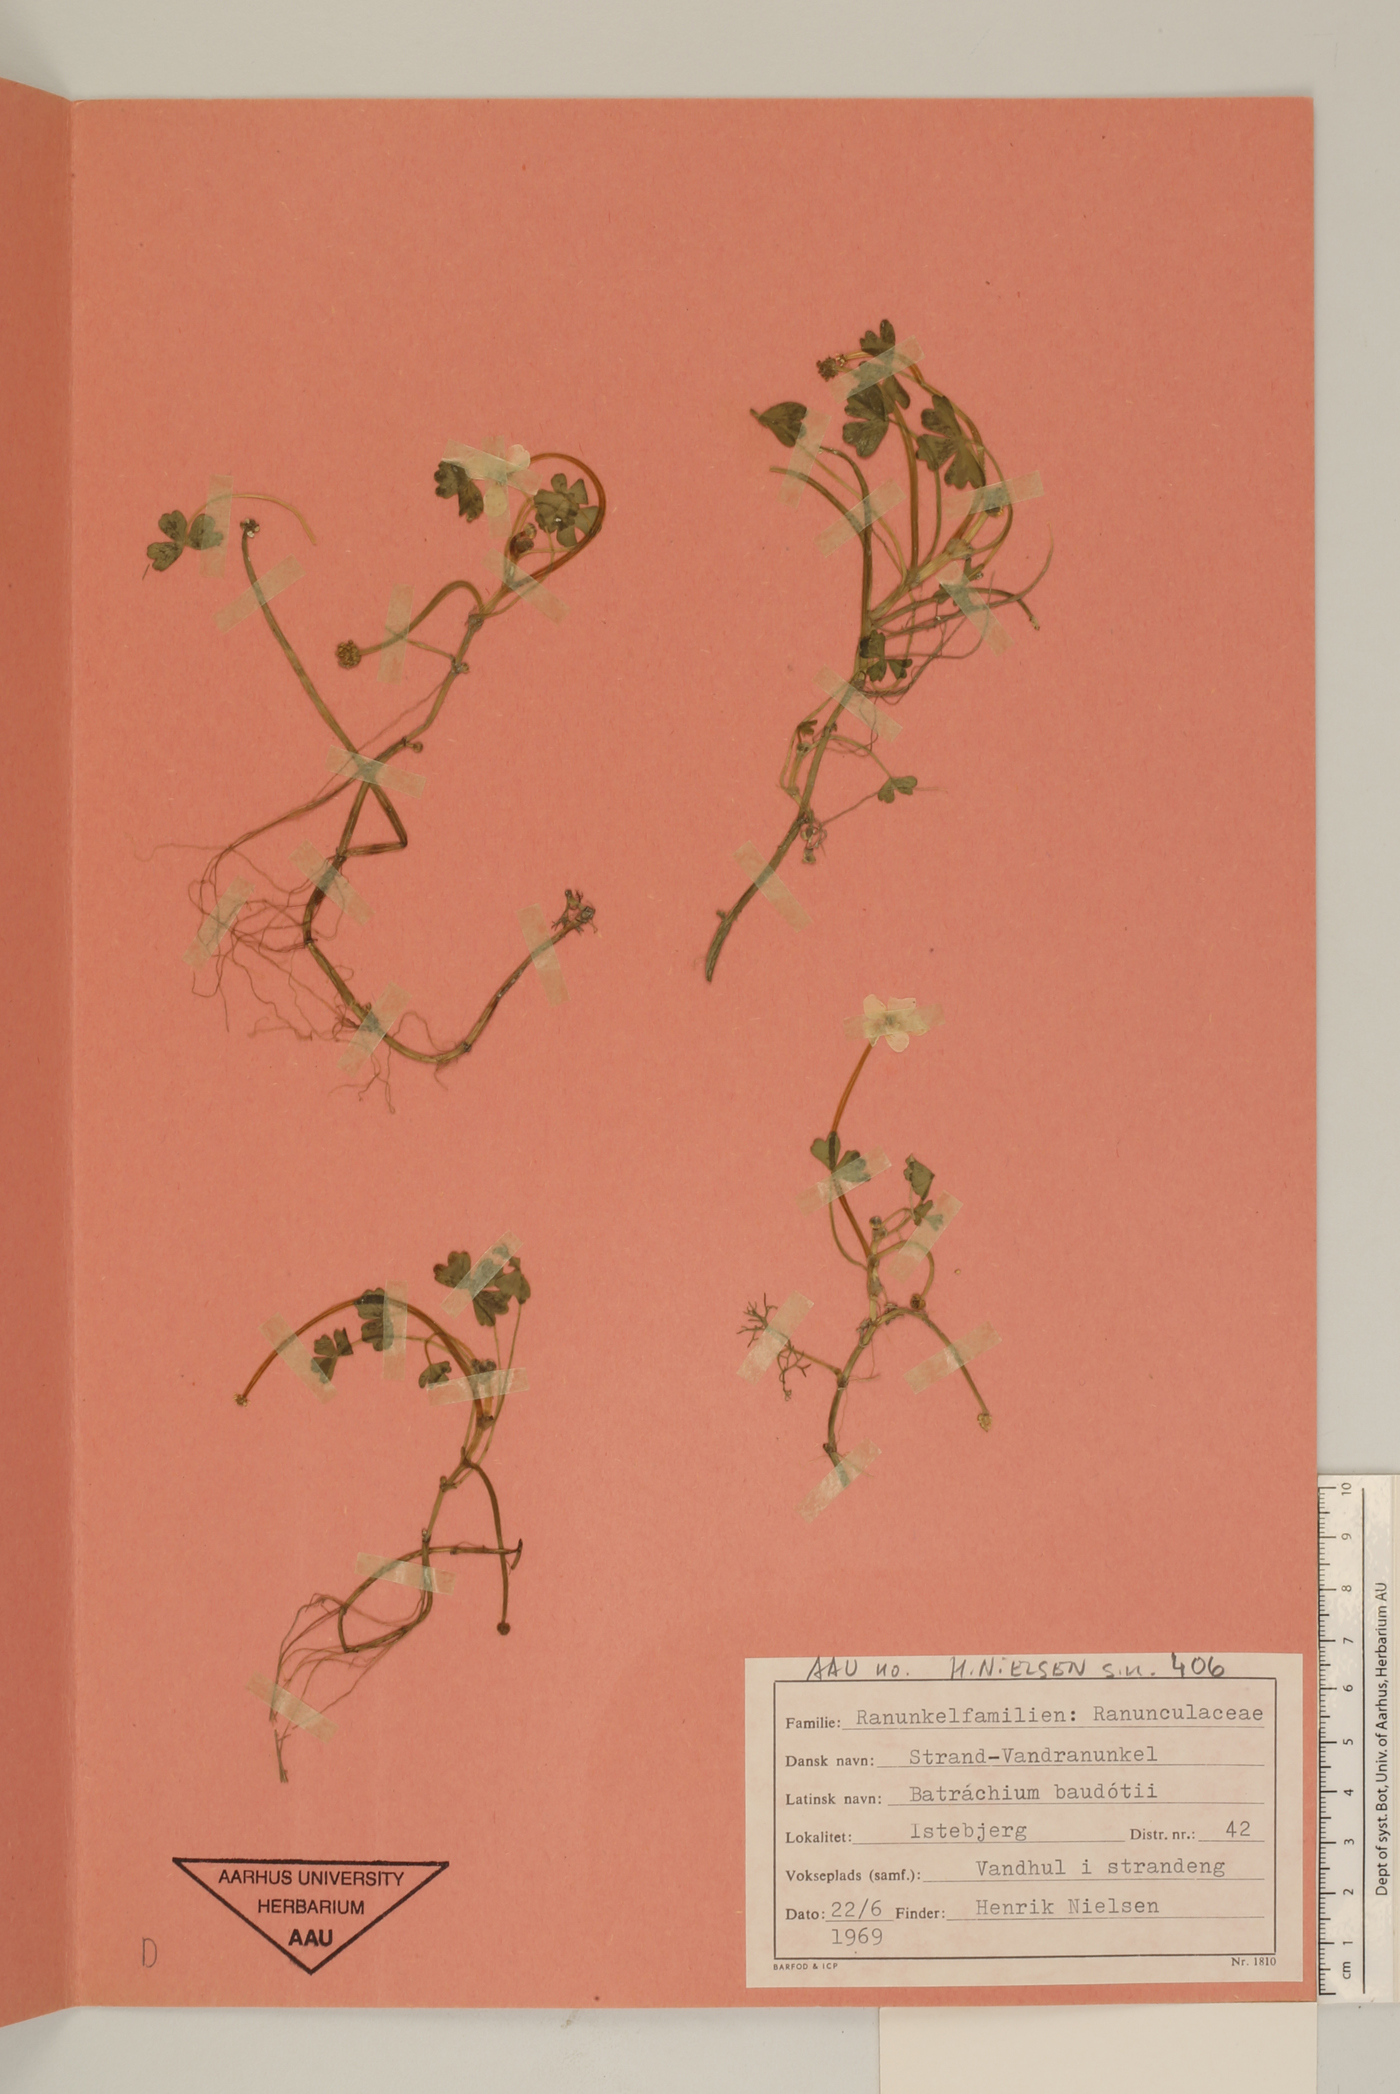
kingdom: Plantae
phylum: Tracheophyta
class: Magnoliopsida
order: Ranunculales
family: Ranunculaceae
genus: Ranunculus
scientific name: Ranunculus peltatus
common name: Pond water-crowfoot
